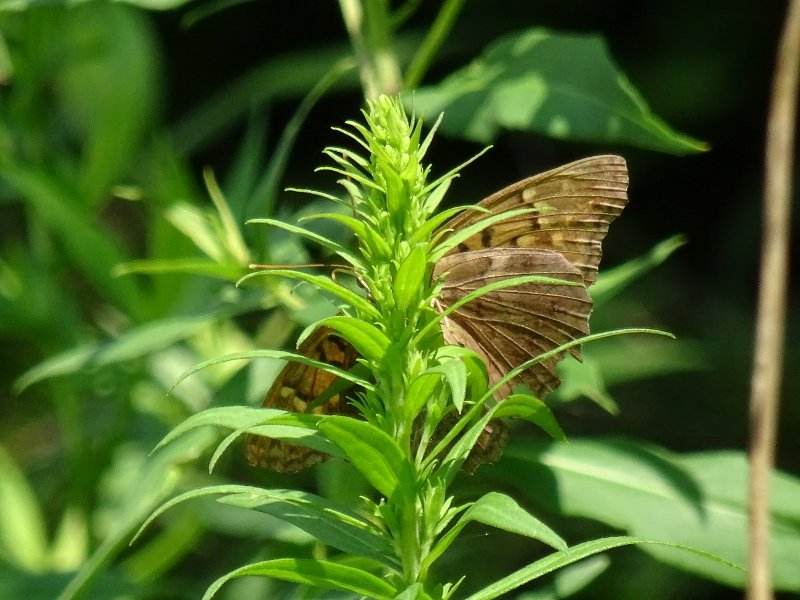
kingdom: Animalia
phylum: Arthropoda
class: Insecta
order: Lepidoptera
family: Nymphalidae
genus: Asterocampa
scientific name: Asterocampa clyton
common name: Tawny Emperor
